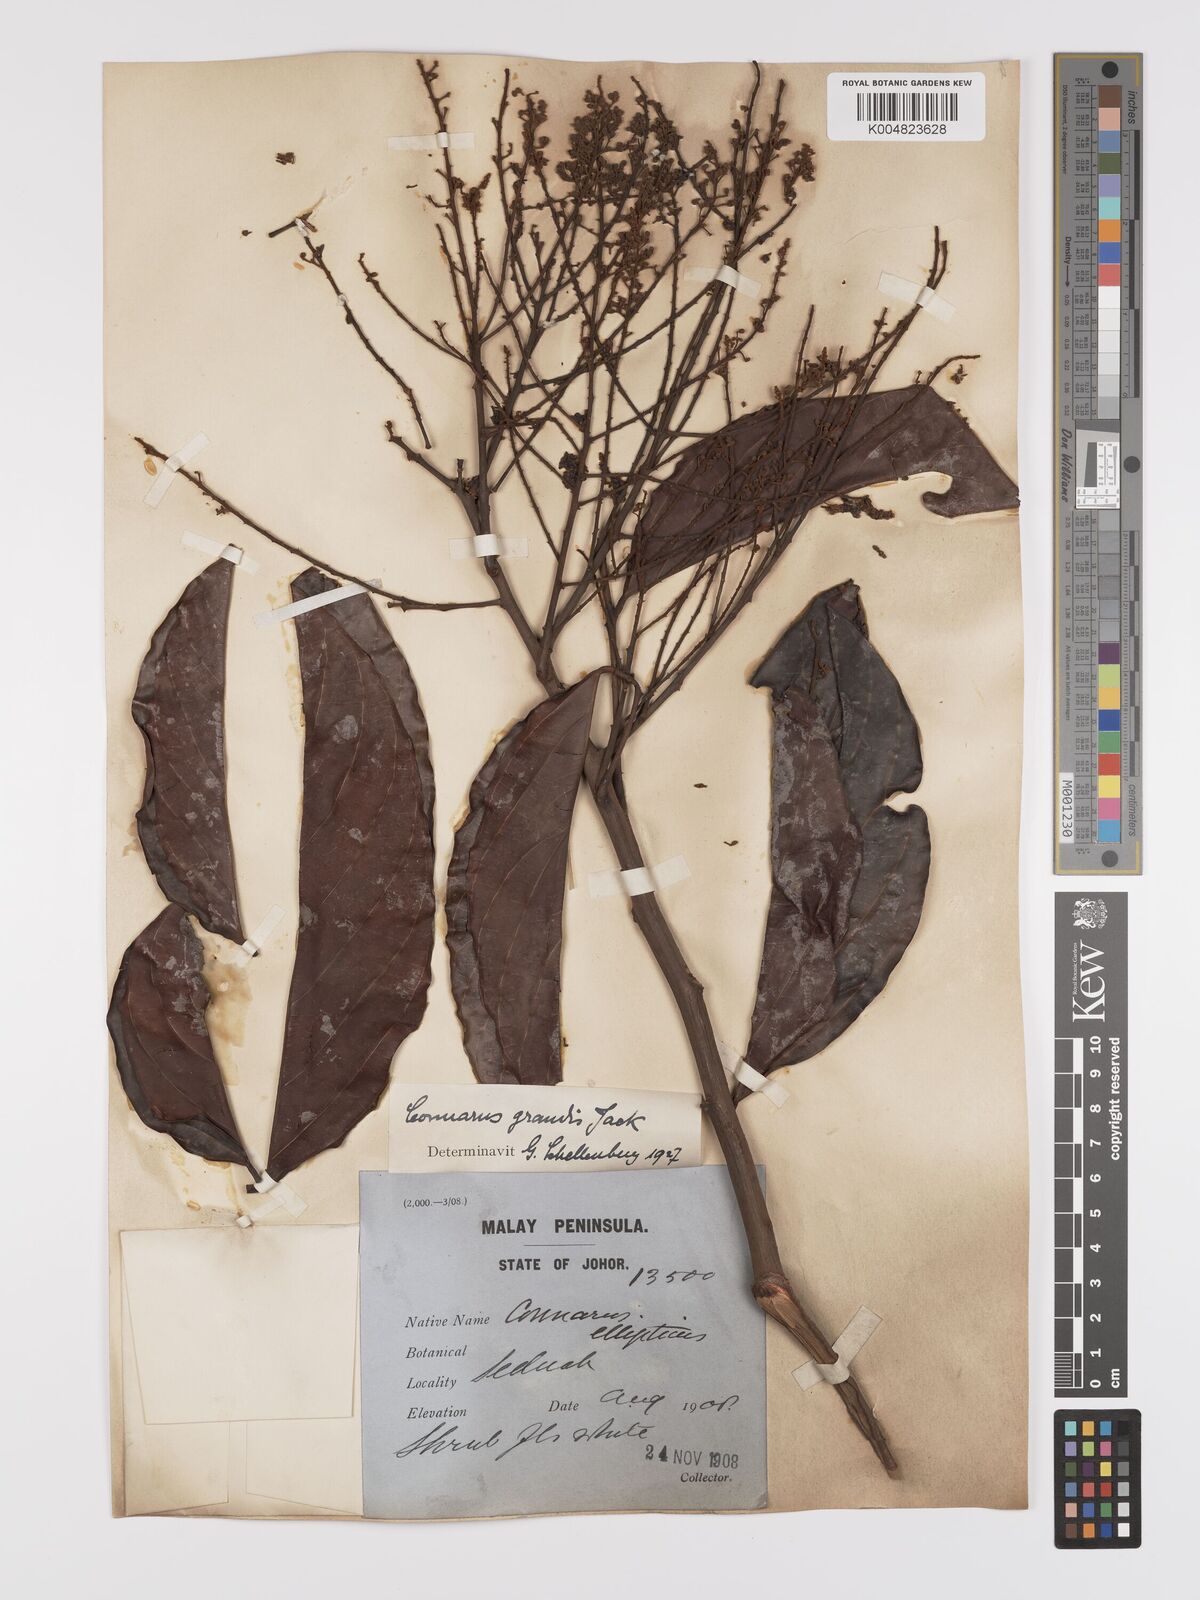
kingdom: Plantae
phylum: Tracheophyta
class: Magnoliopsida
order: Oxalidales
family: Connaraceae
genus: Connarus
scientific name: Connarus grandis
